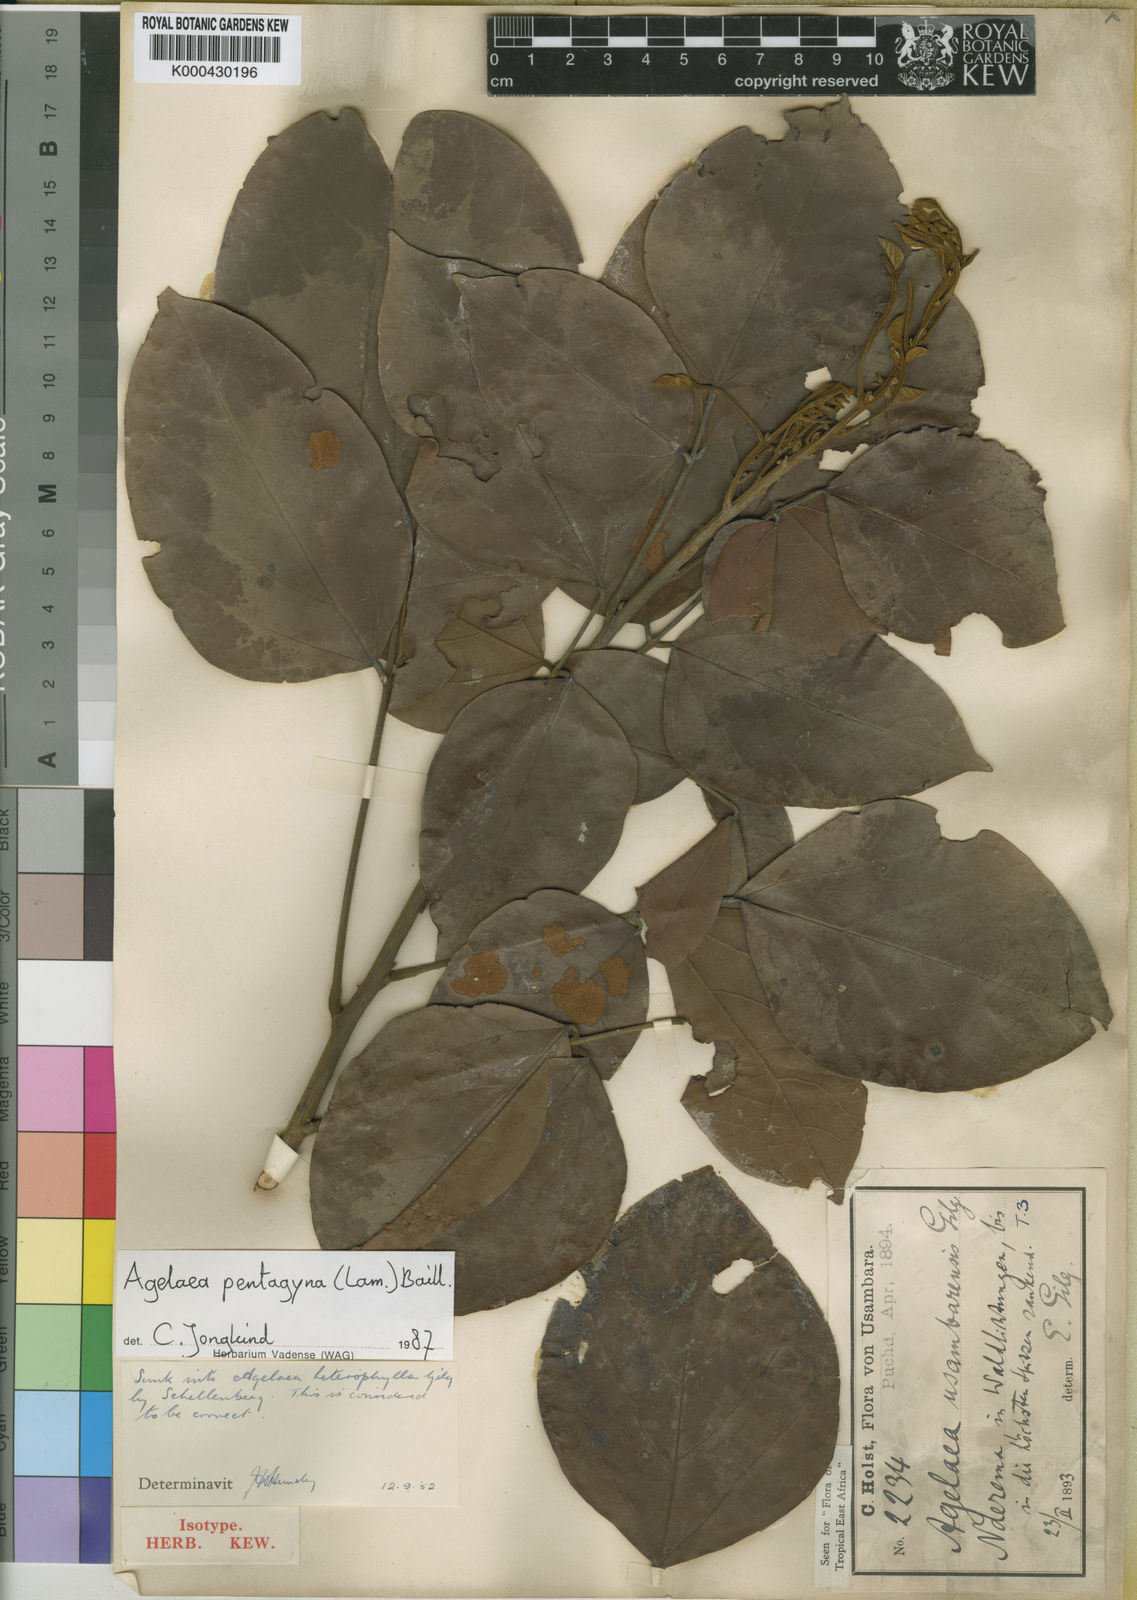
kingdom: Plantae
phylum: Tracheophyta
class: Magnoliopsida
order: Oxalidales
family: Connaraceae
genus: Agelaea
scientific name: Agelaea pentagyna
